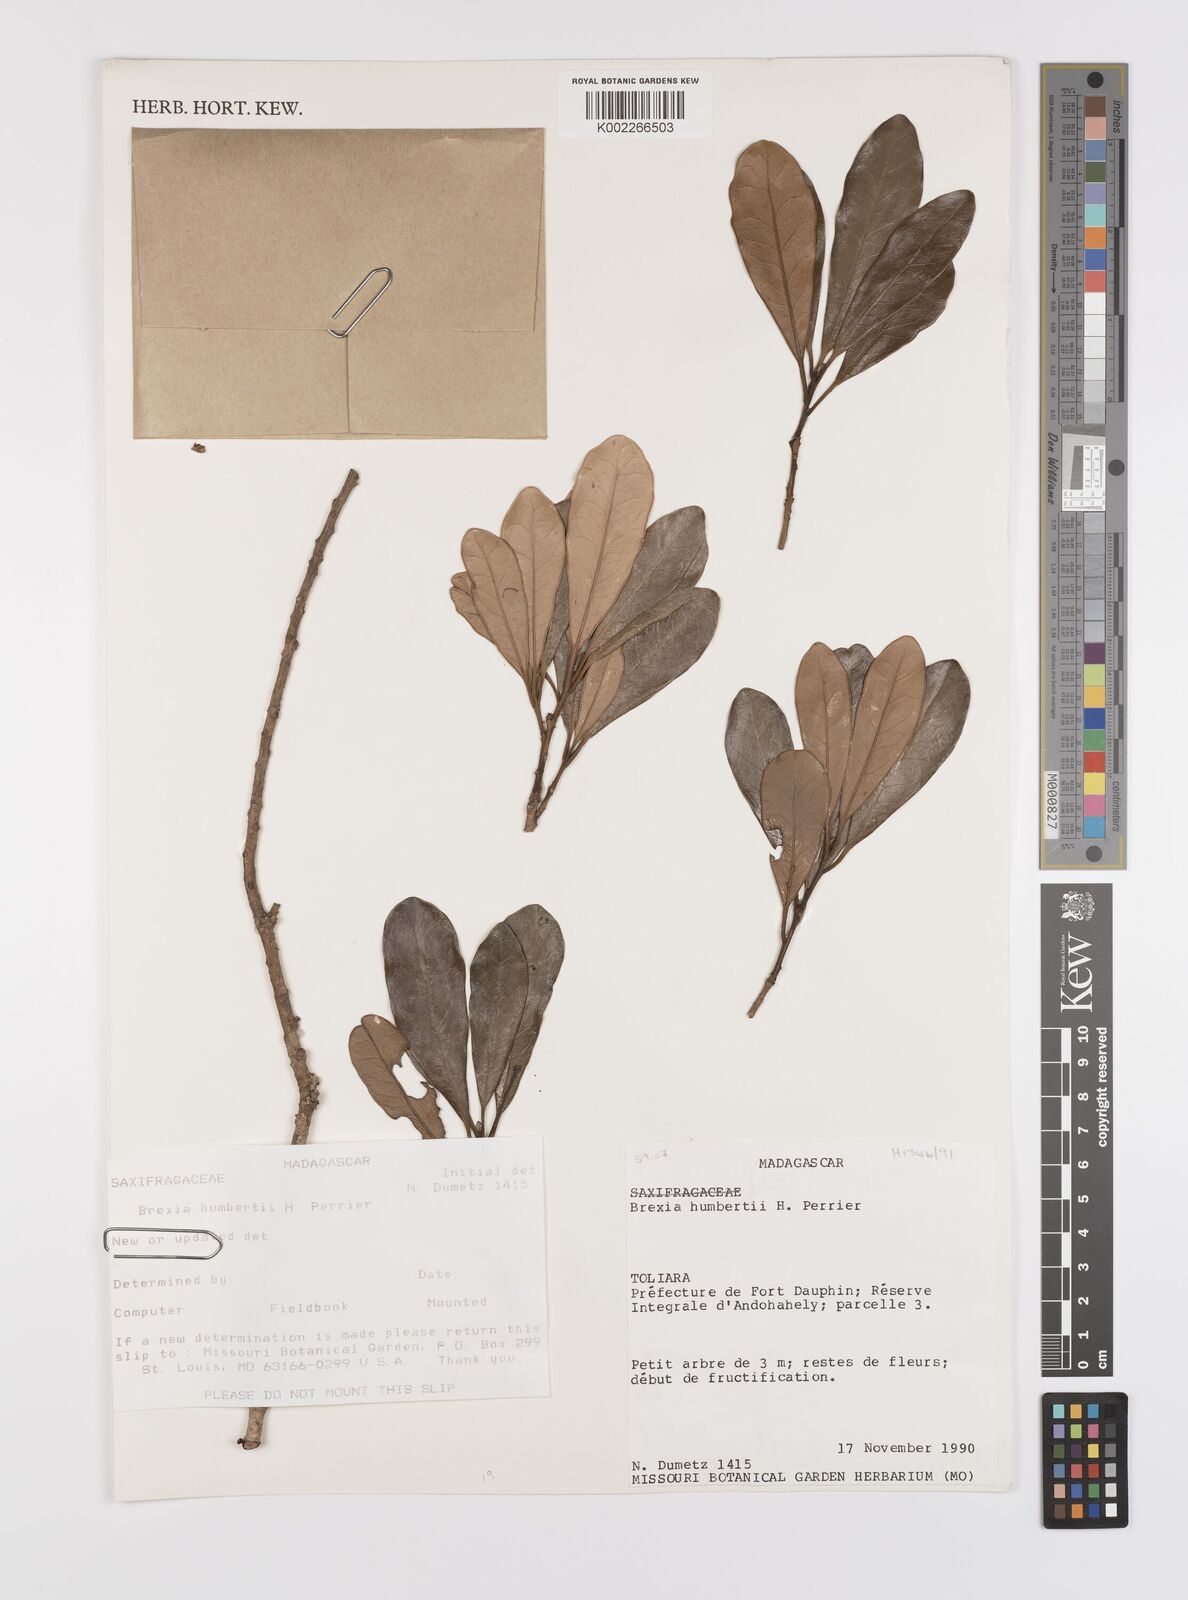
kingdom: Plantae
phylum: Tracheophyta
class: Magnoliopsida
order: Celastrales
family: Celastraceae
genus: Brexia
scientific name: Brexia humbertii
